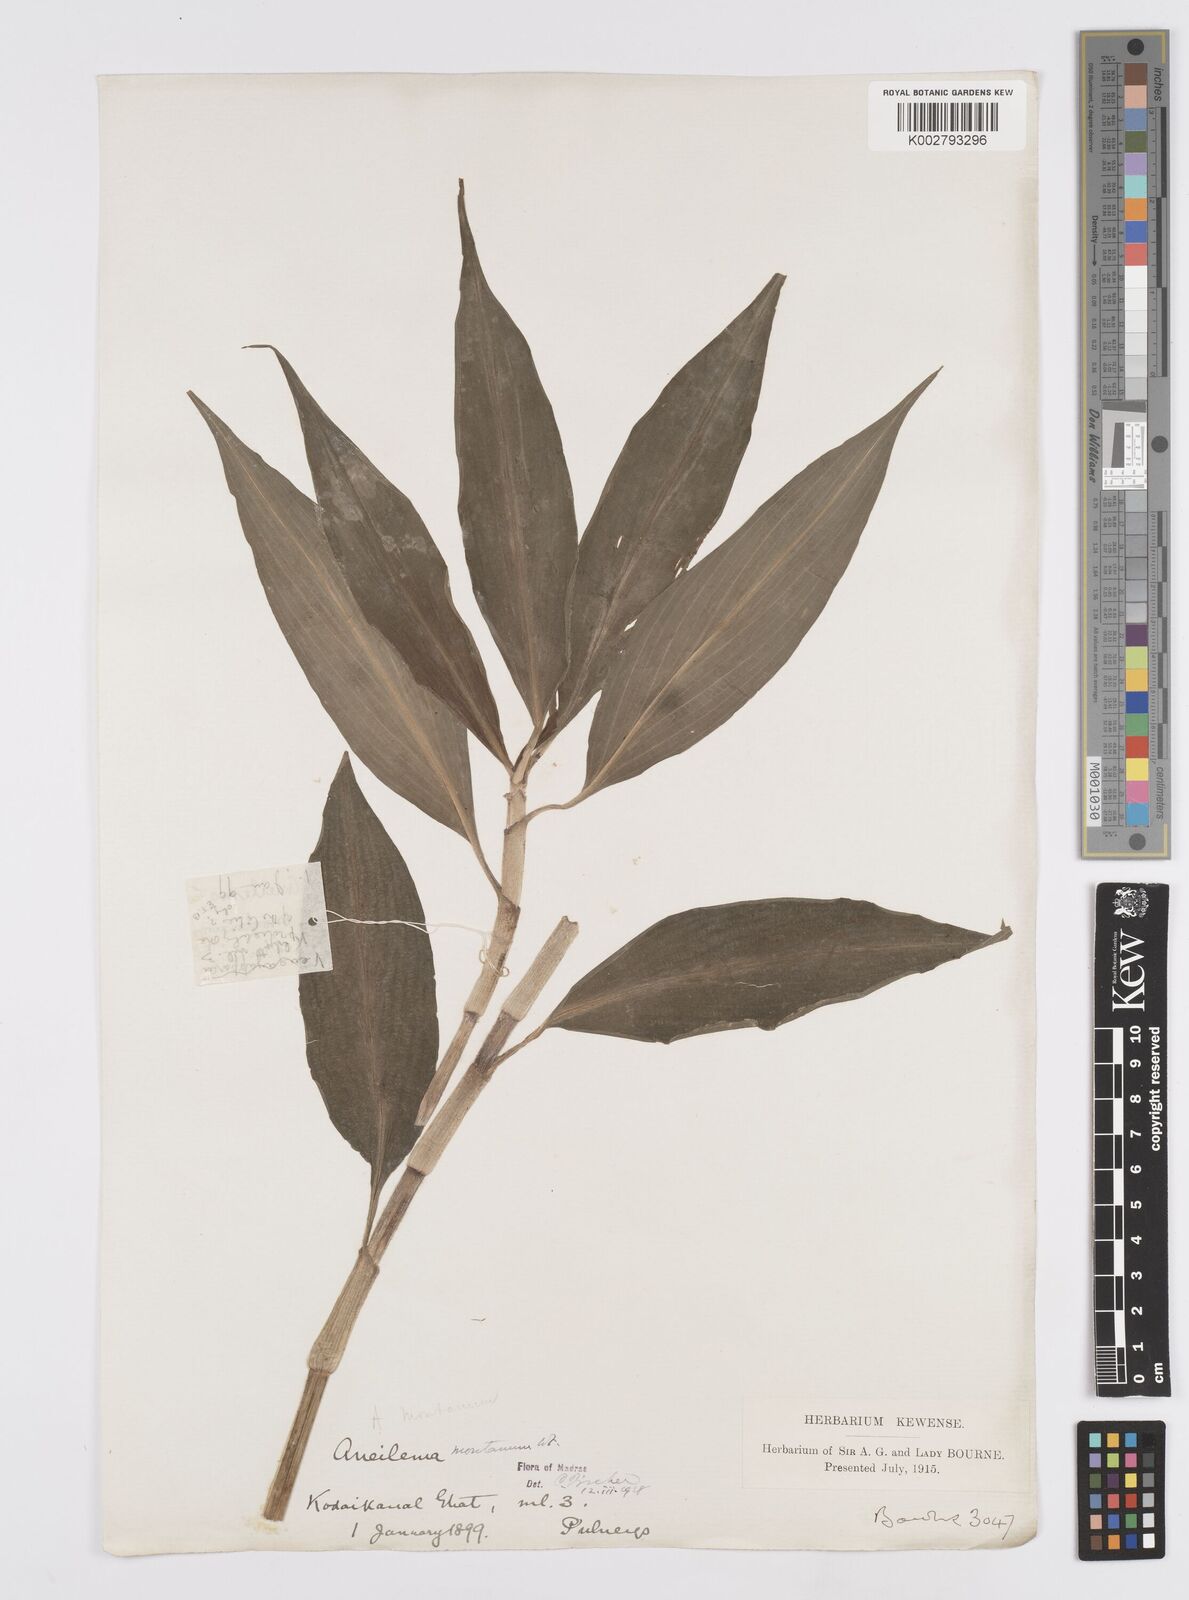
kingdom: Plantae
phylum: Tracheophyta
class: Liliopsida
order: Commelinales
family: Commelinaceae
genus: Murdannia
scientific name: Murdannia
